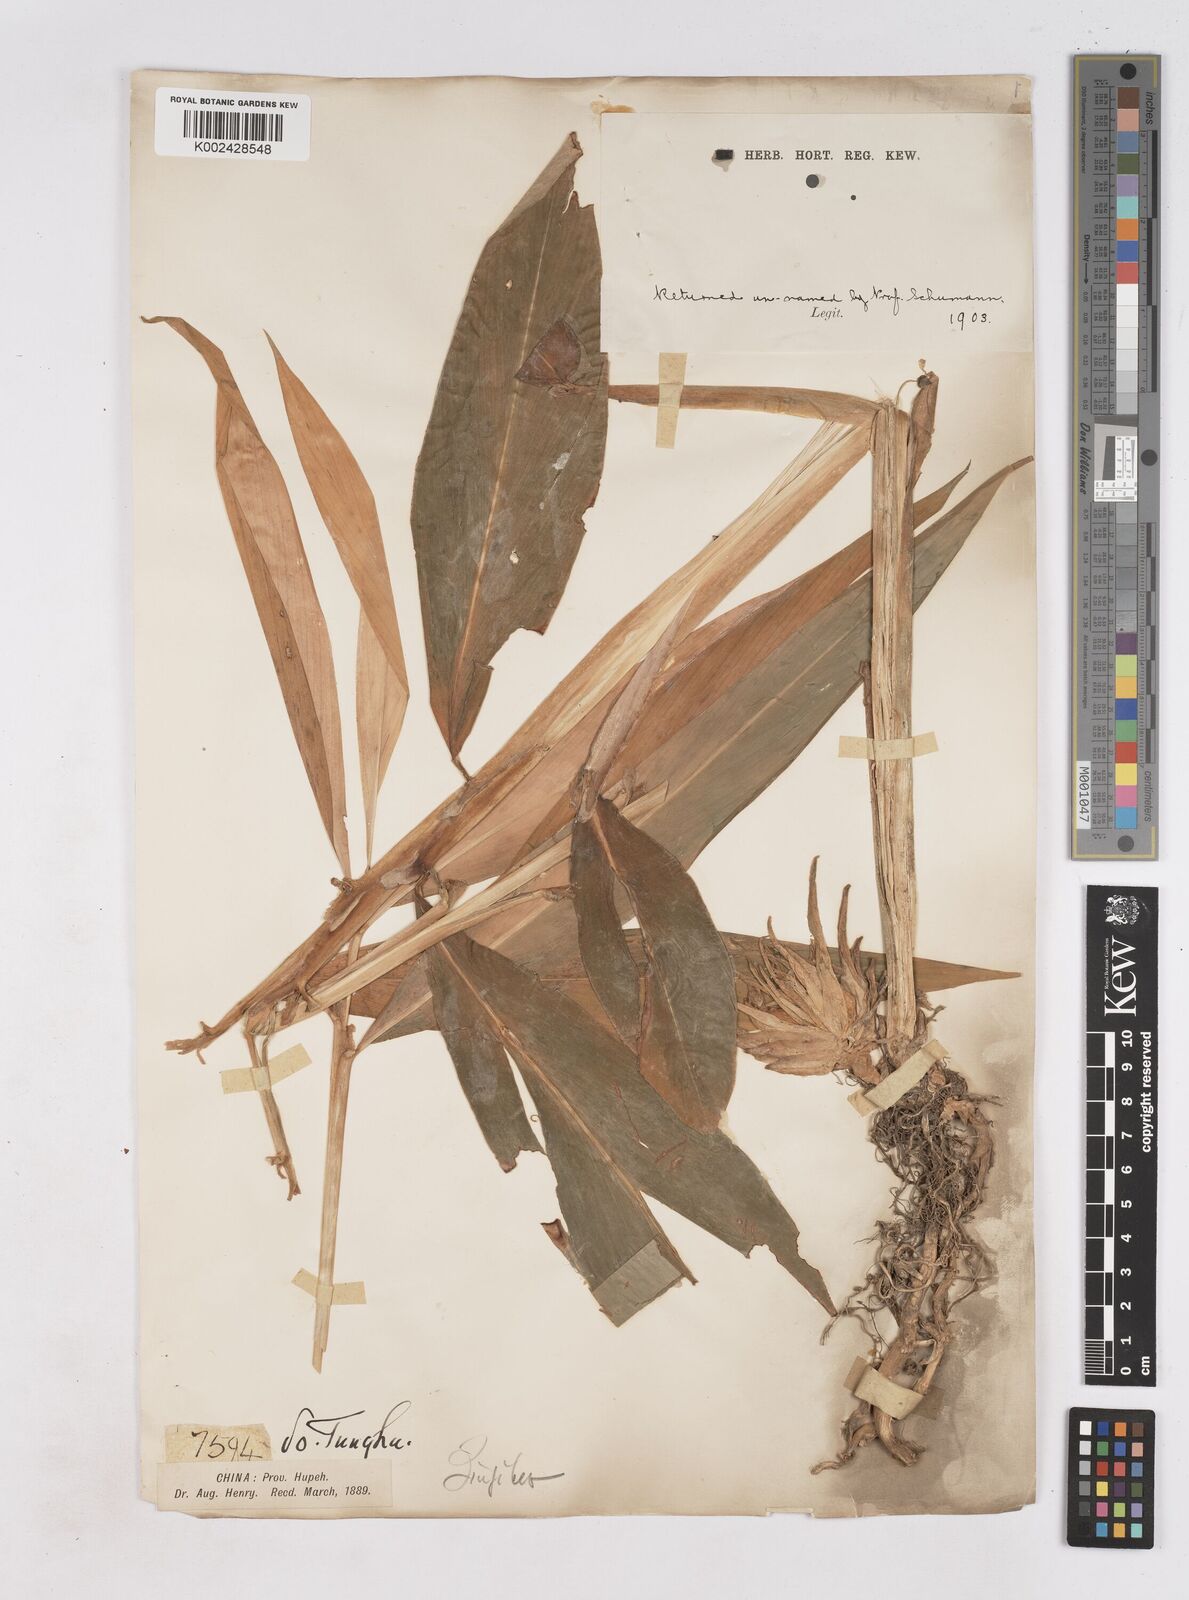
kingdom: Plantae
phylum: Tracheophyta
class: Liliopsida
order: Zingiberales
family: Zingiberaceae
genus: Zingiber
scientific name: Zingiber
